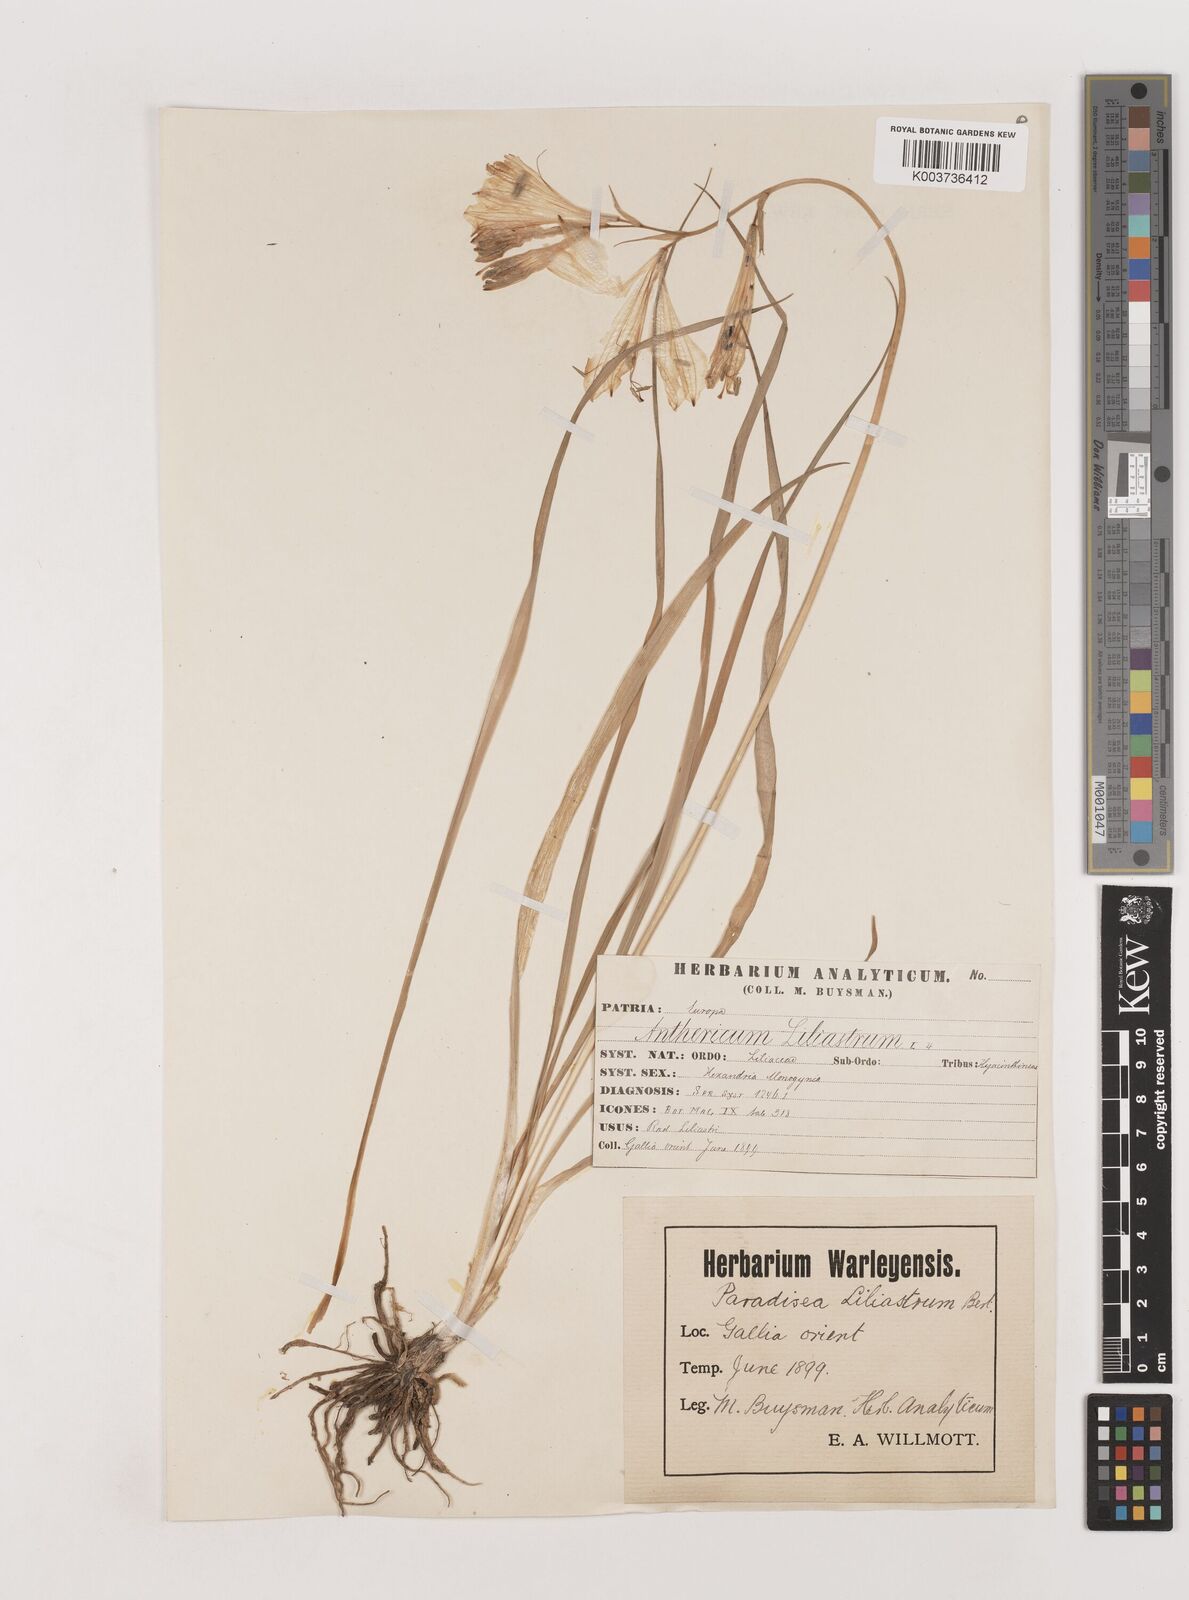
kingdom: Plantae
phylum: Tracheophyta
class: Liliopsida
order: Asparagales
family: Asparagaceae
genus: Paradisea
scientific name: Paradisea liliastrum
